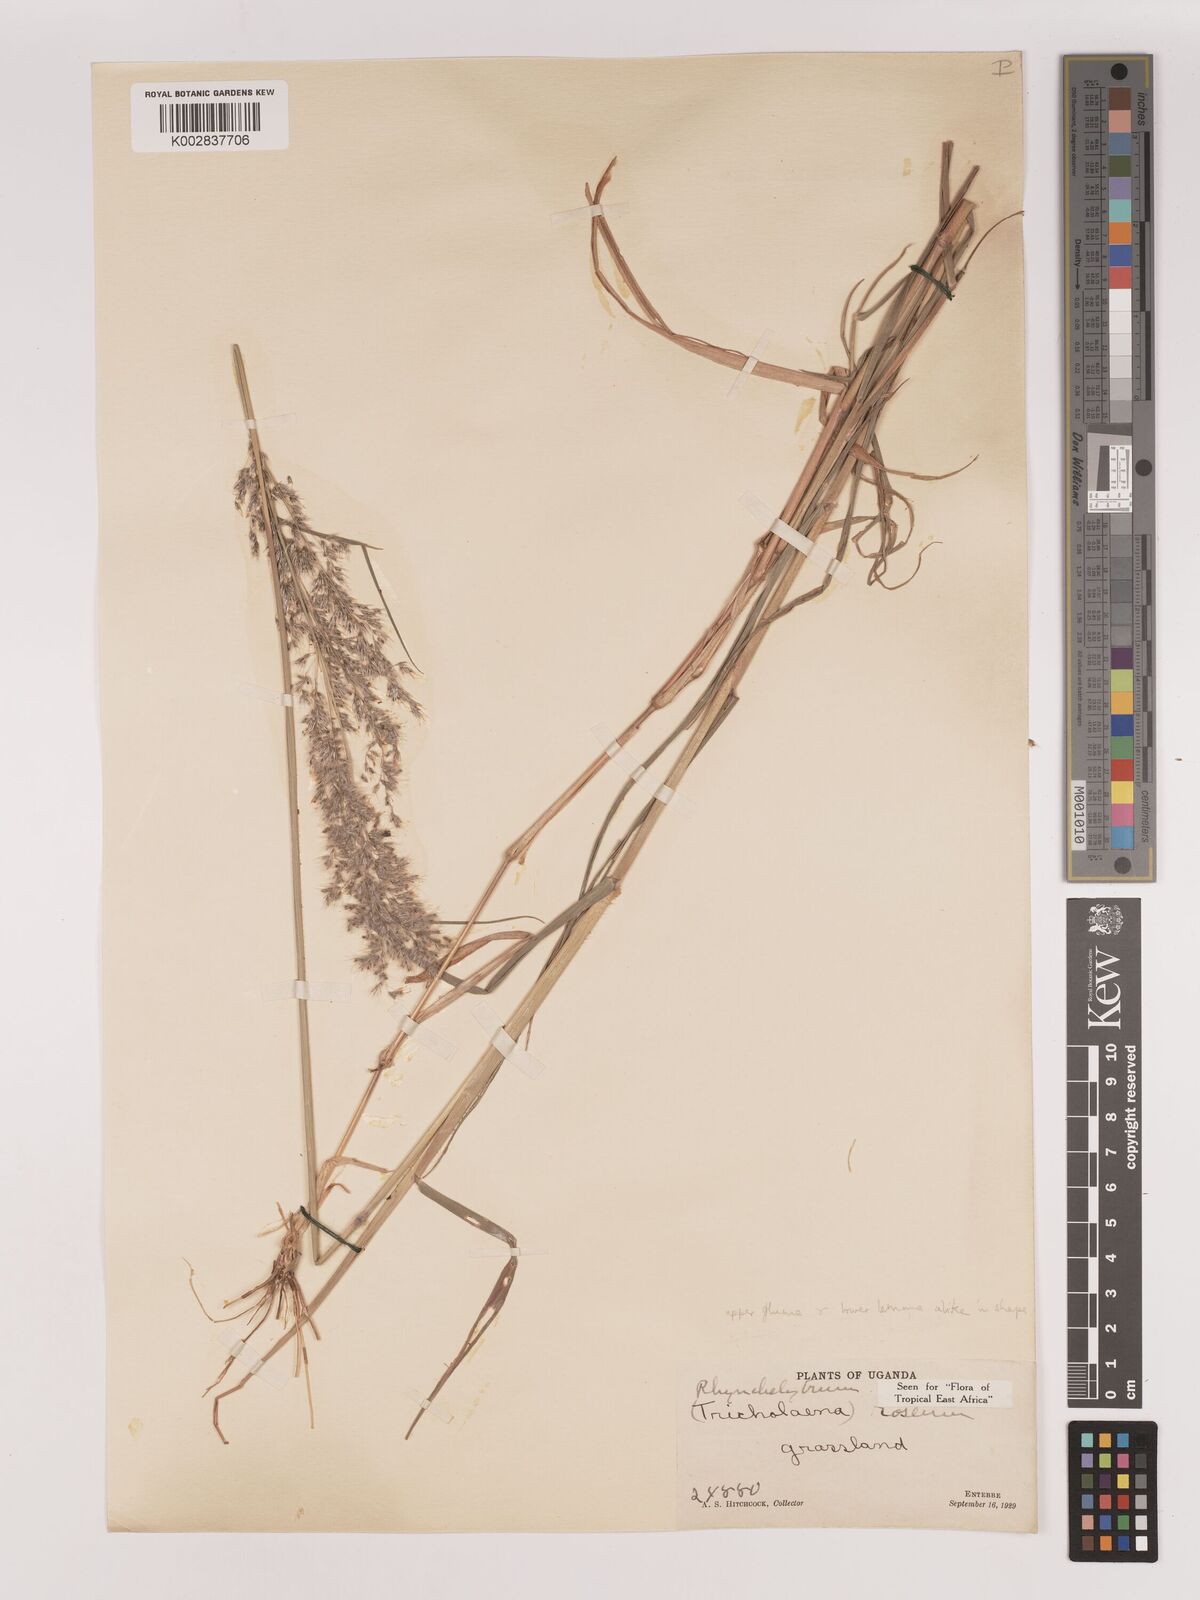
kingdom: Plantae
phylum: Tracheophyta
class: Liliopsida
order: Poales
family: Poaceae
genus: Melinis
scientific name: Melinis repens
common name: Rose natal grass
